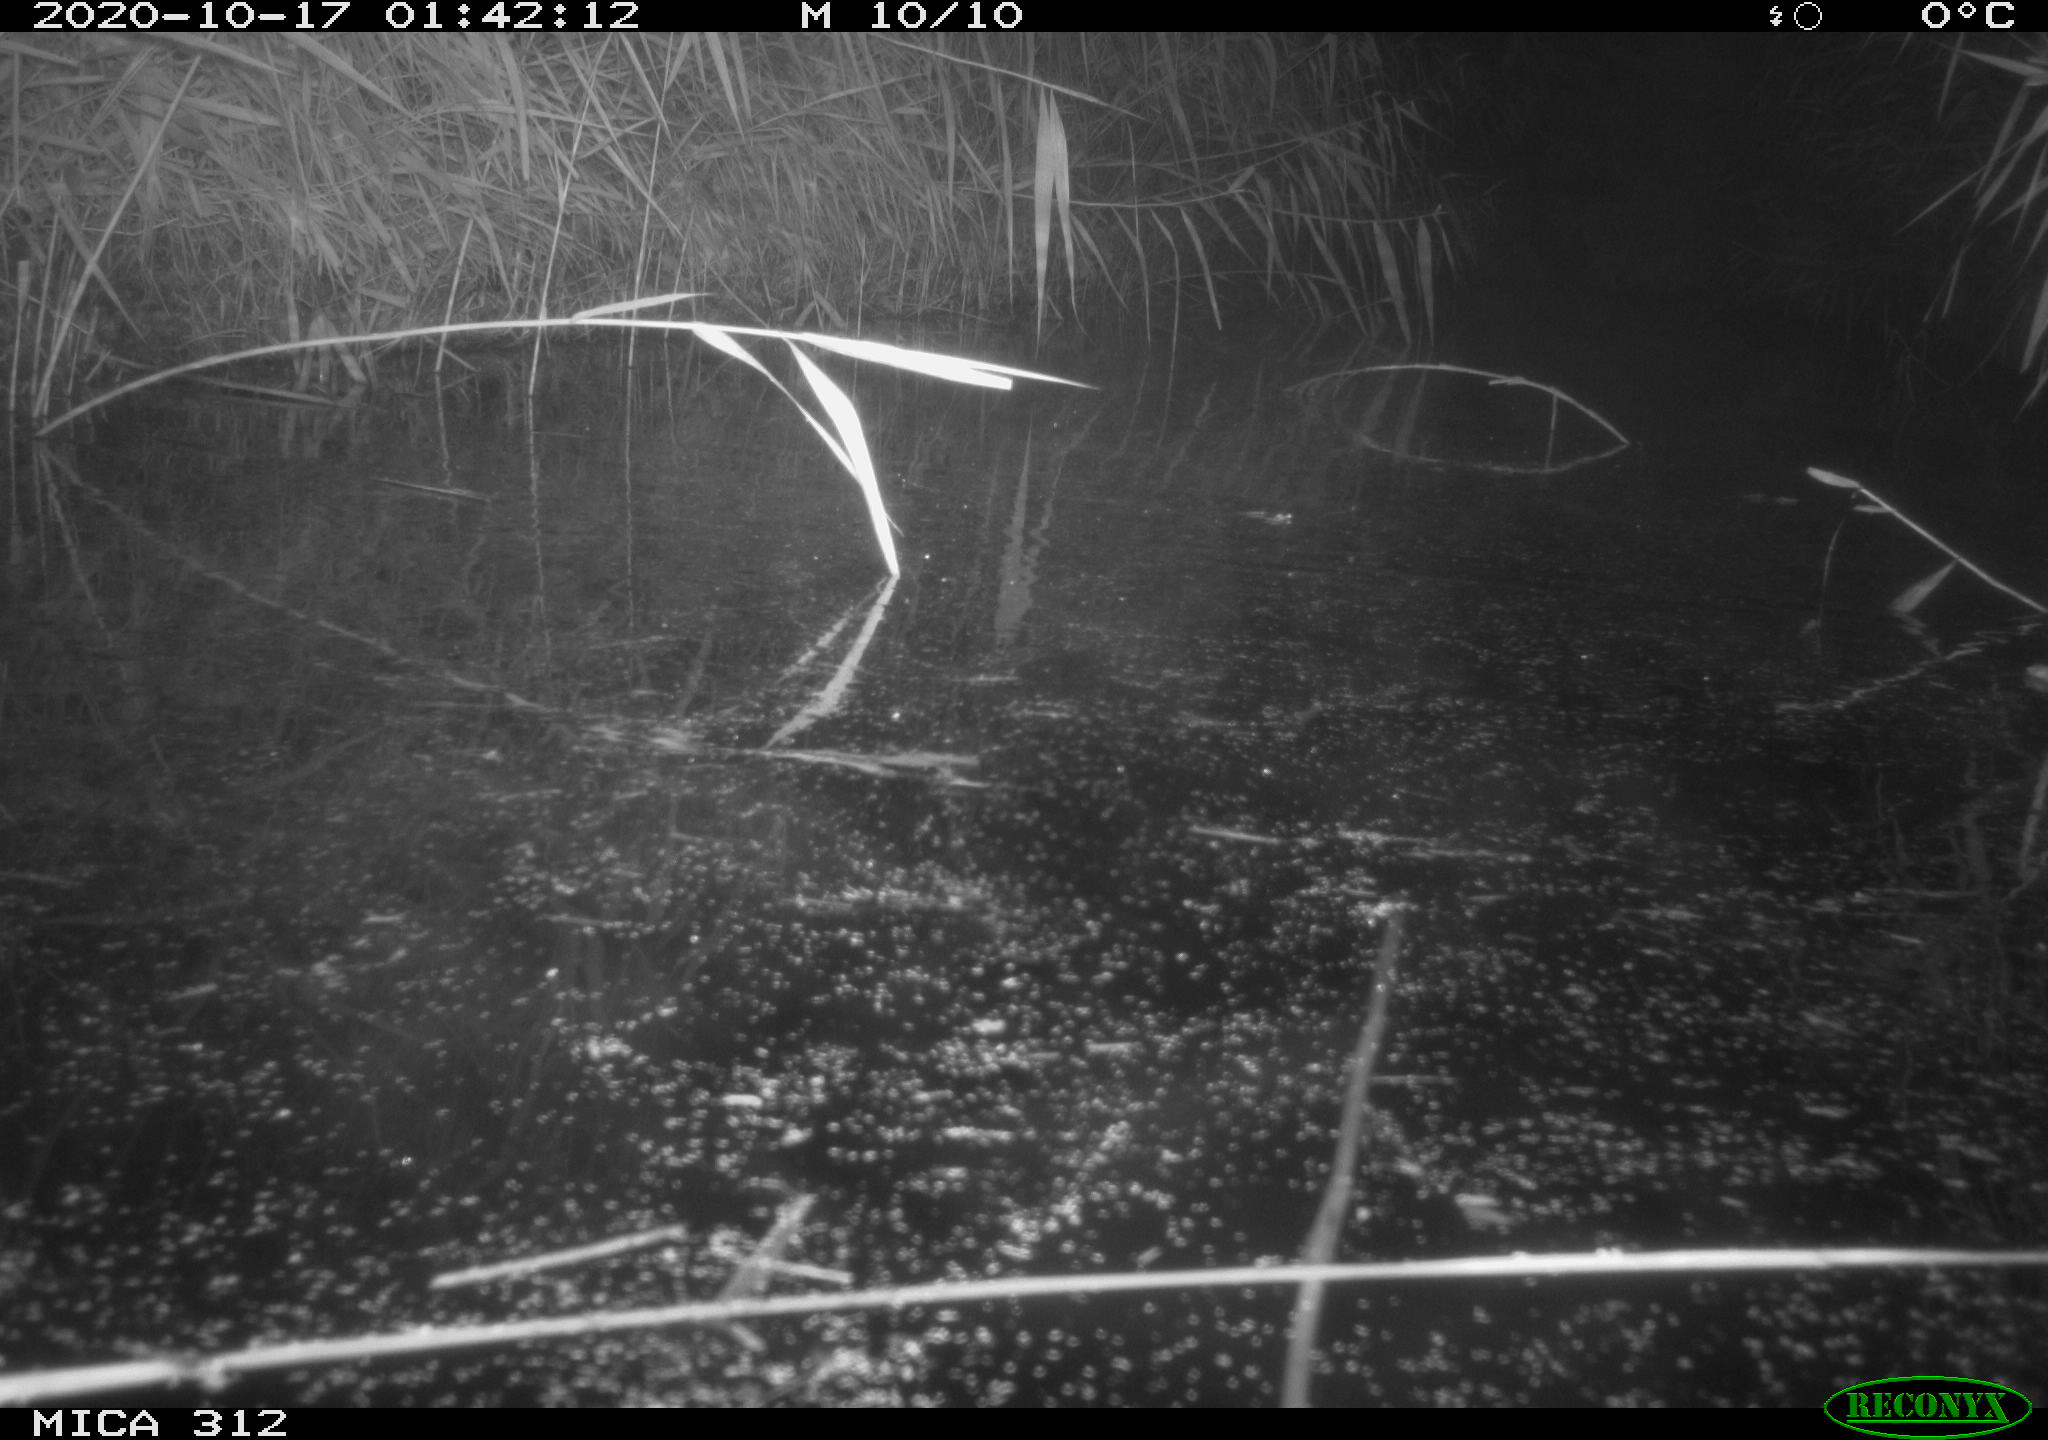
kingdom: Animalia
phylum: Chordata
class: Mammalia
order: Rodentia
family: Muridae
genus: Rattus
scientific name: Rattus norvegicus
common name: Brown rat
